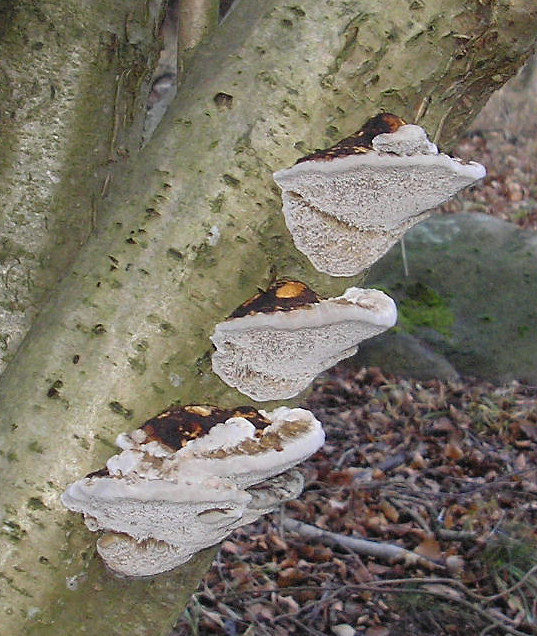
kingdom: Fungi
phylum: Basidiomycota
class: Agaricomycetes
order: Polyporales
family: Polyporaceae
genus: Daedaleopsis
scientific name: Daedaleopsis confragosa
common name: rødmende læderporesvamp
